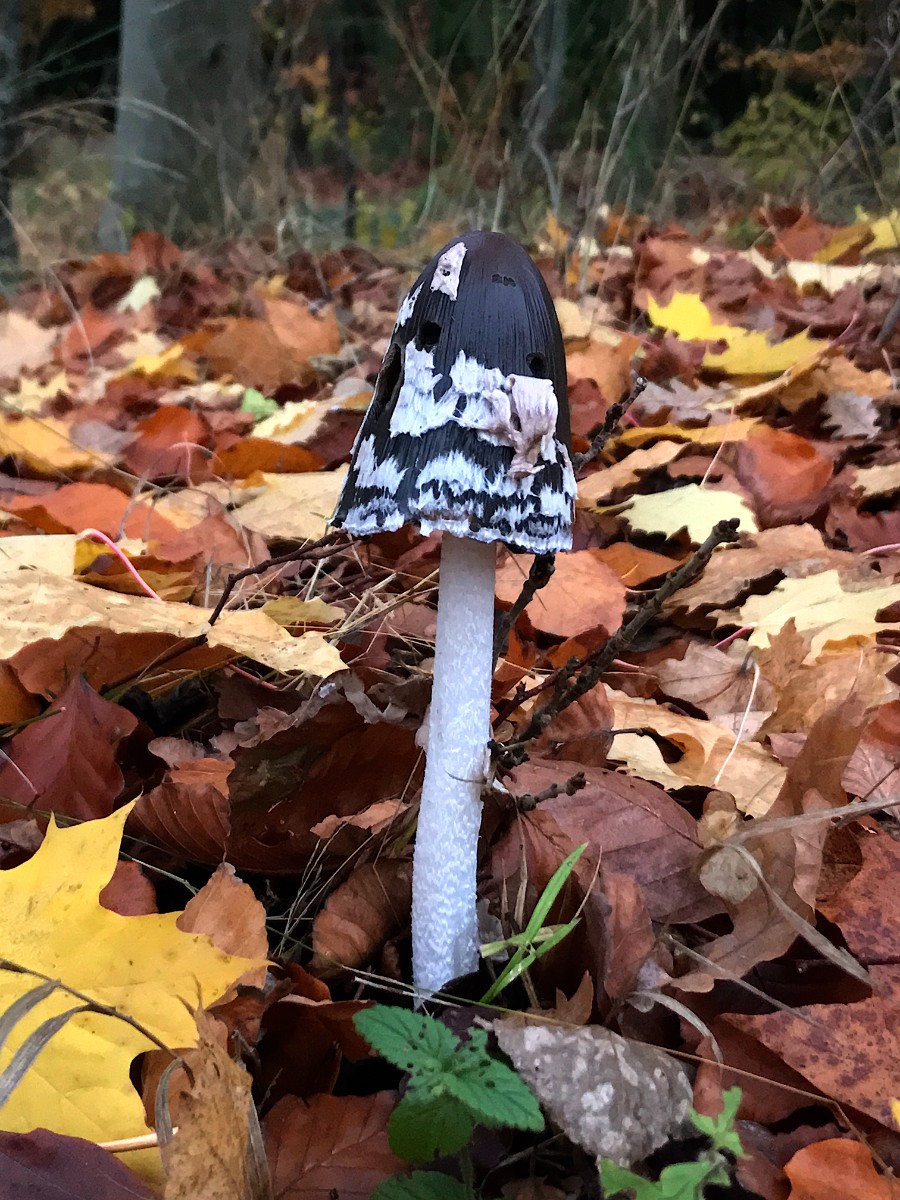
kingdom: Fungi
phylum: Basidiomycota
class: Agaricomycetes
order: Agaricales
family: Psathyrellaceae
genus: Coprinopsis
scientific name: Coprinopsis picacea
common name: skade-blækhat
